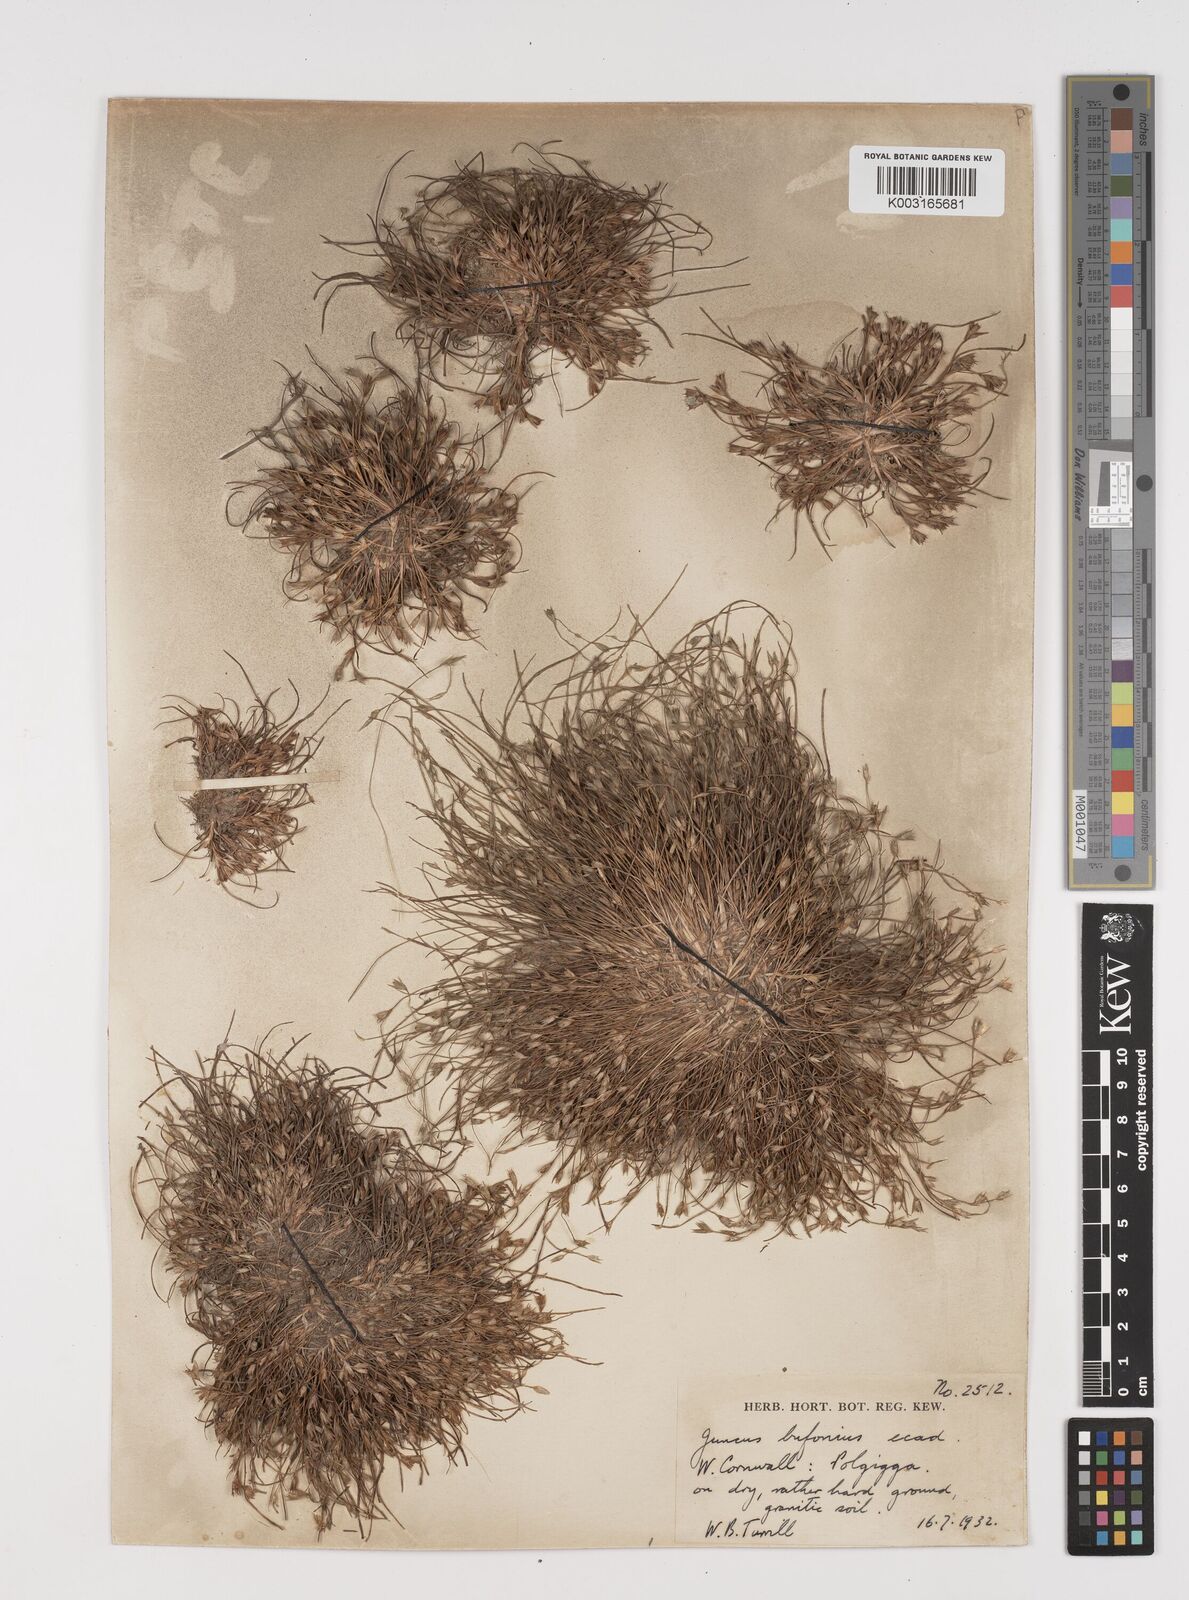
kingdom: Plantae
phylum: Tracheophyta
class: Liliopsida
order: Poales
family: Juncaceae
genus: Juncus
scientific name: Juncus bufonius
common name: Toad rush
